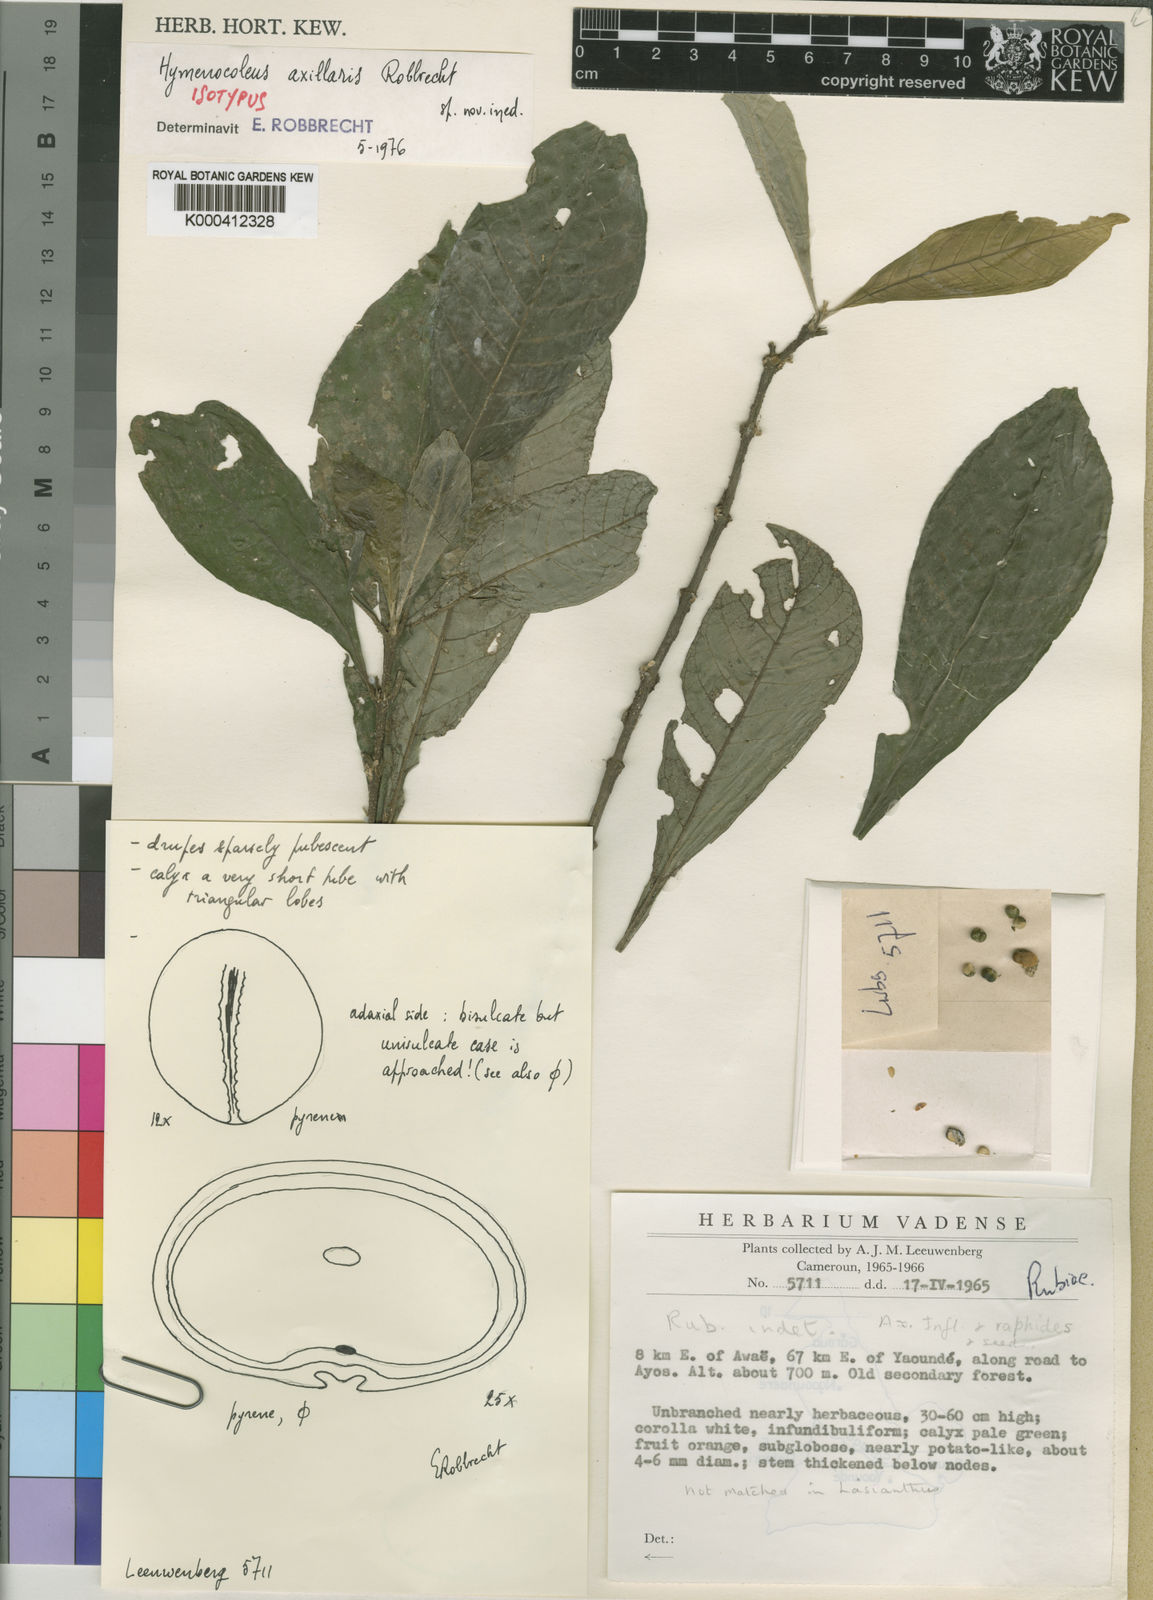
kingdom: Plantae
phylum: Tracheophyta
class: Magnoliopsida
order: Gentianales
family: Rubiaceae
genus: Hymenocoleus
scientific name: Hymenocoleus axillaris
